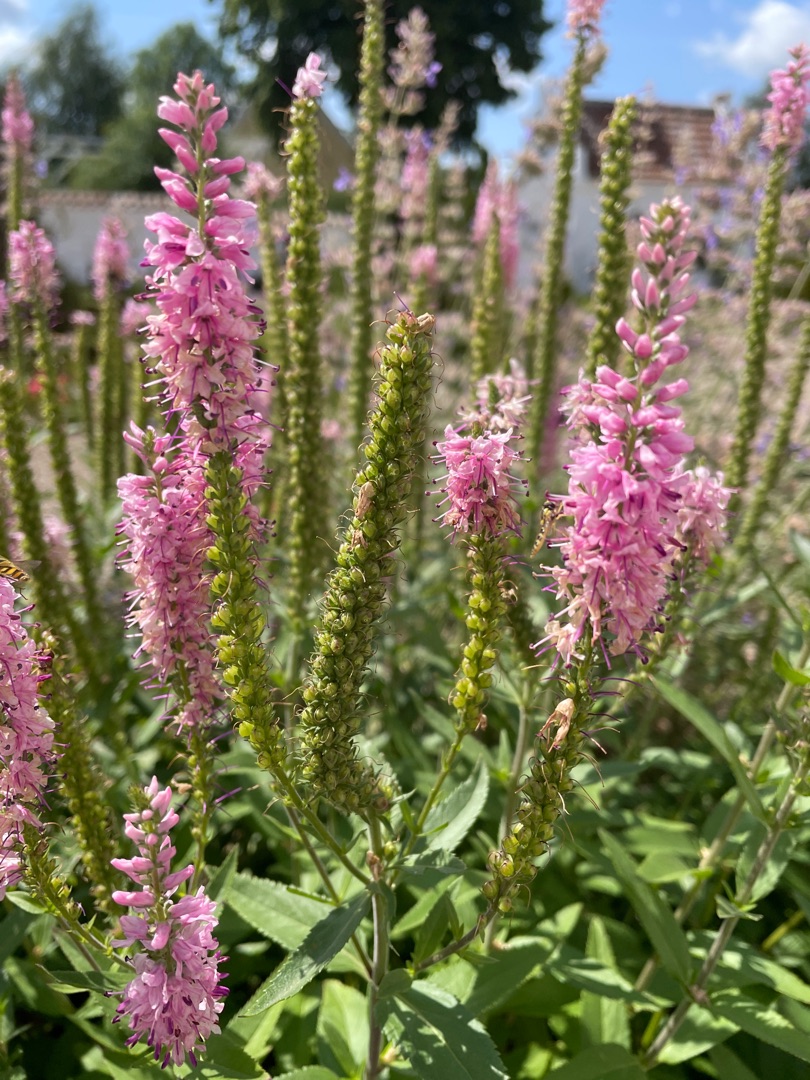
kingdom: Plantae
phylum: Tracheophyta
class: Magnoliopsida
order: Lamiales
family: Plantaginaceae
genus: Veronica
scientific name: Veronica
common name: Ærenprisslægten
